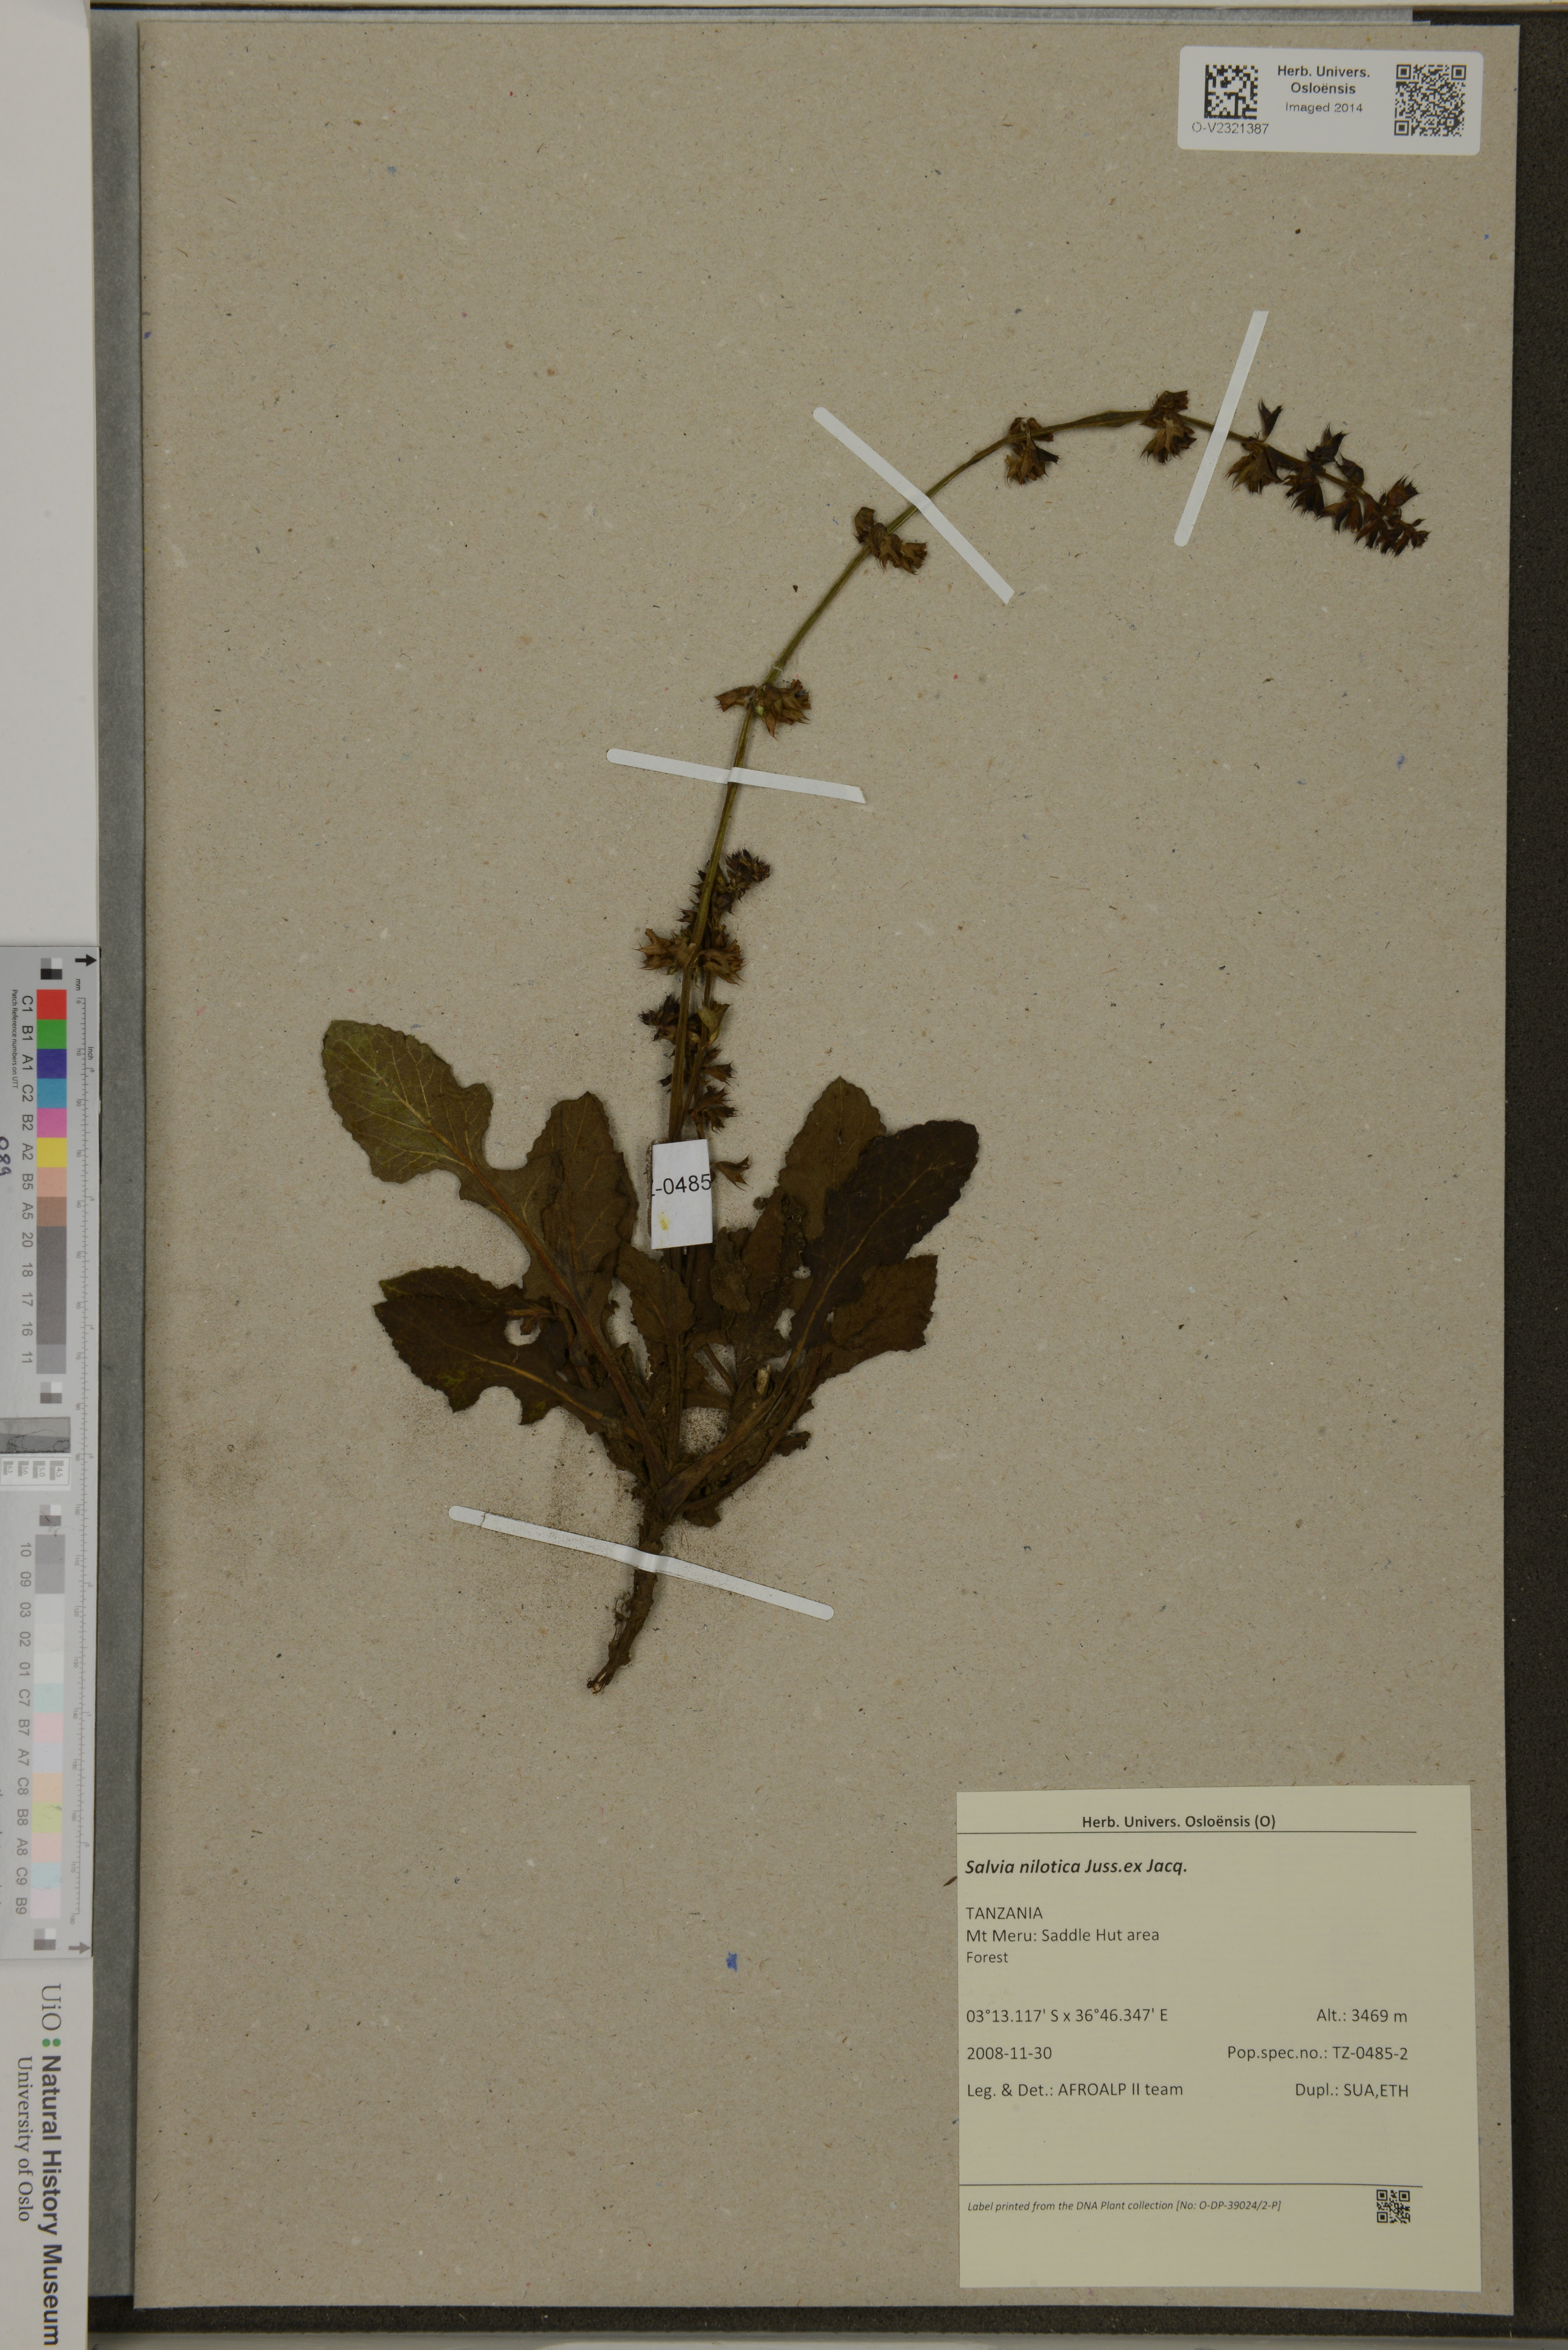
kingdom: Plantae
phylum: Tracheophyta
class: Magnoliopsida
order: Lamiales
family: Lamiaceae
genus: Salvia
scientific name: Salvia nilotica
